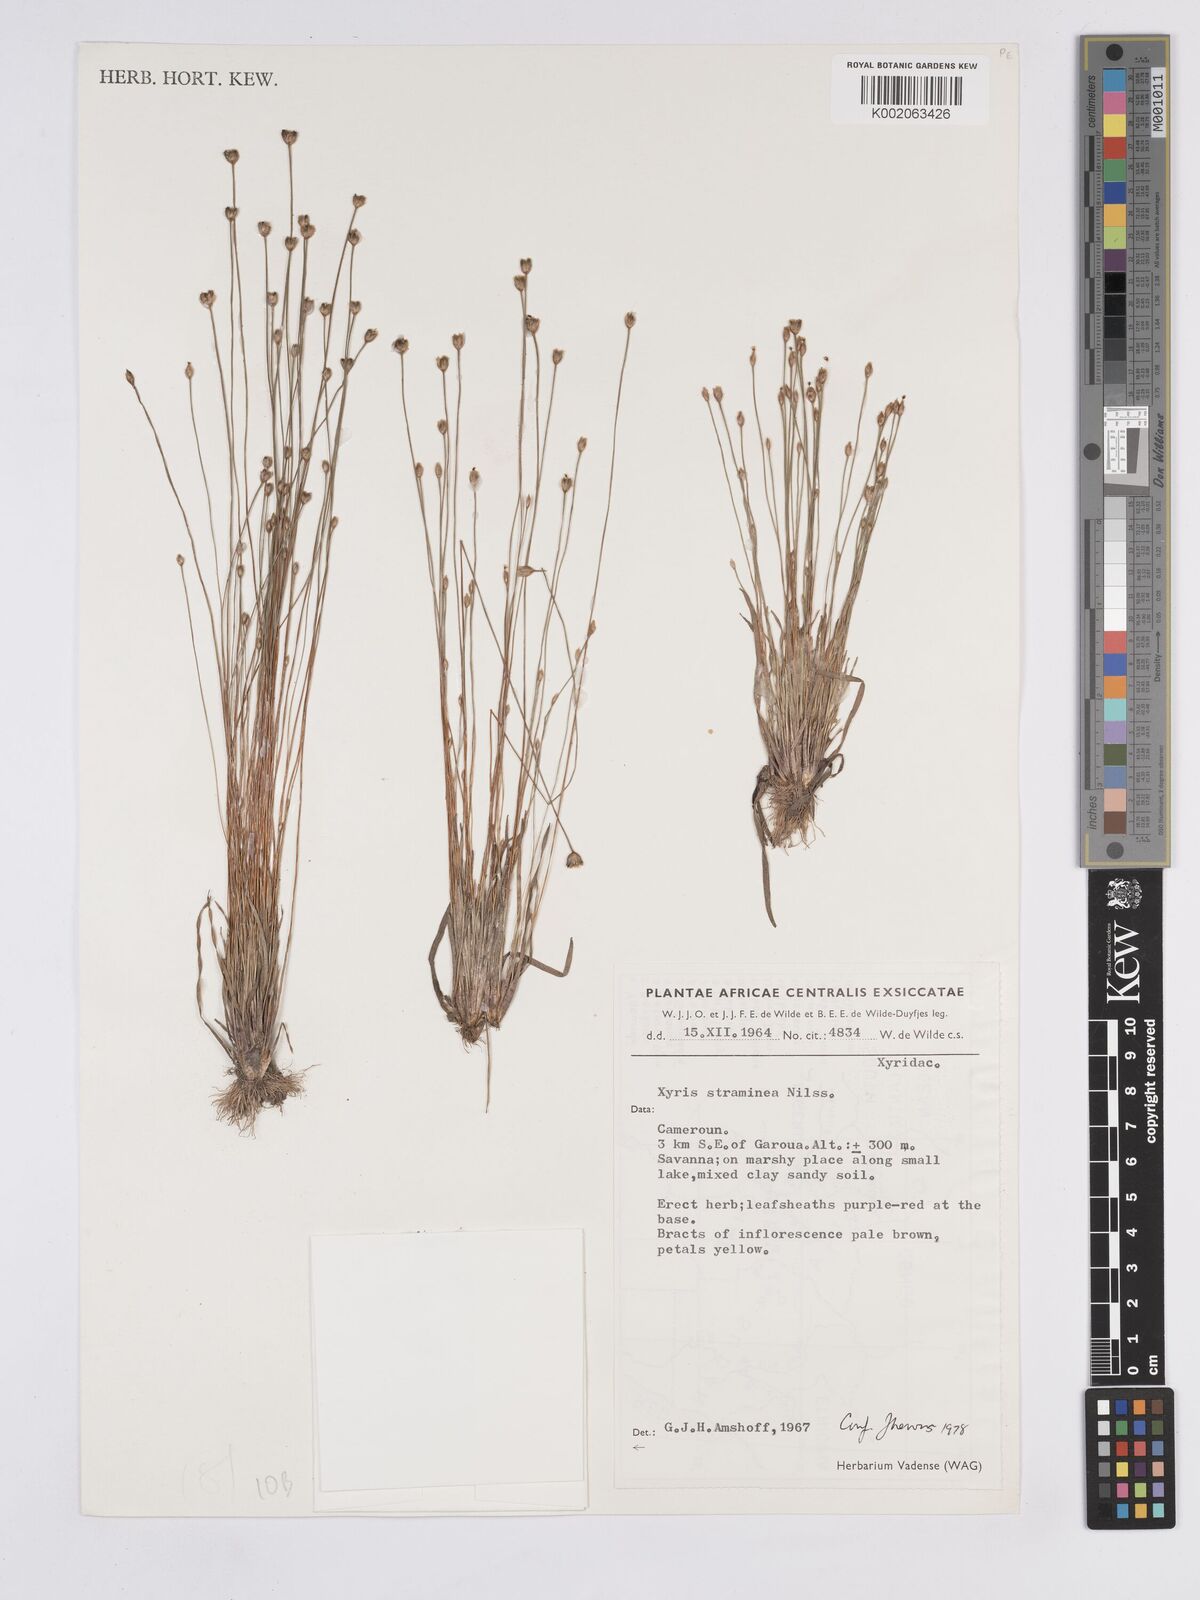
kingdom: Plantae
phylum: Tracheophyta
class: Liliopsida
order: Poales
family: Xyridaceae
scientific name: Xyridaceae
